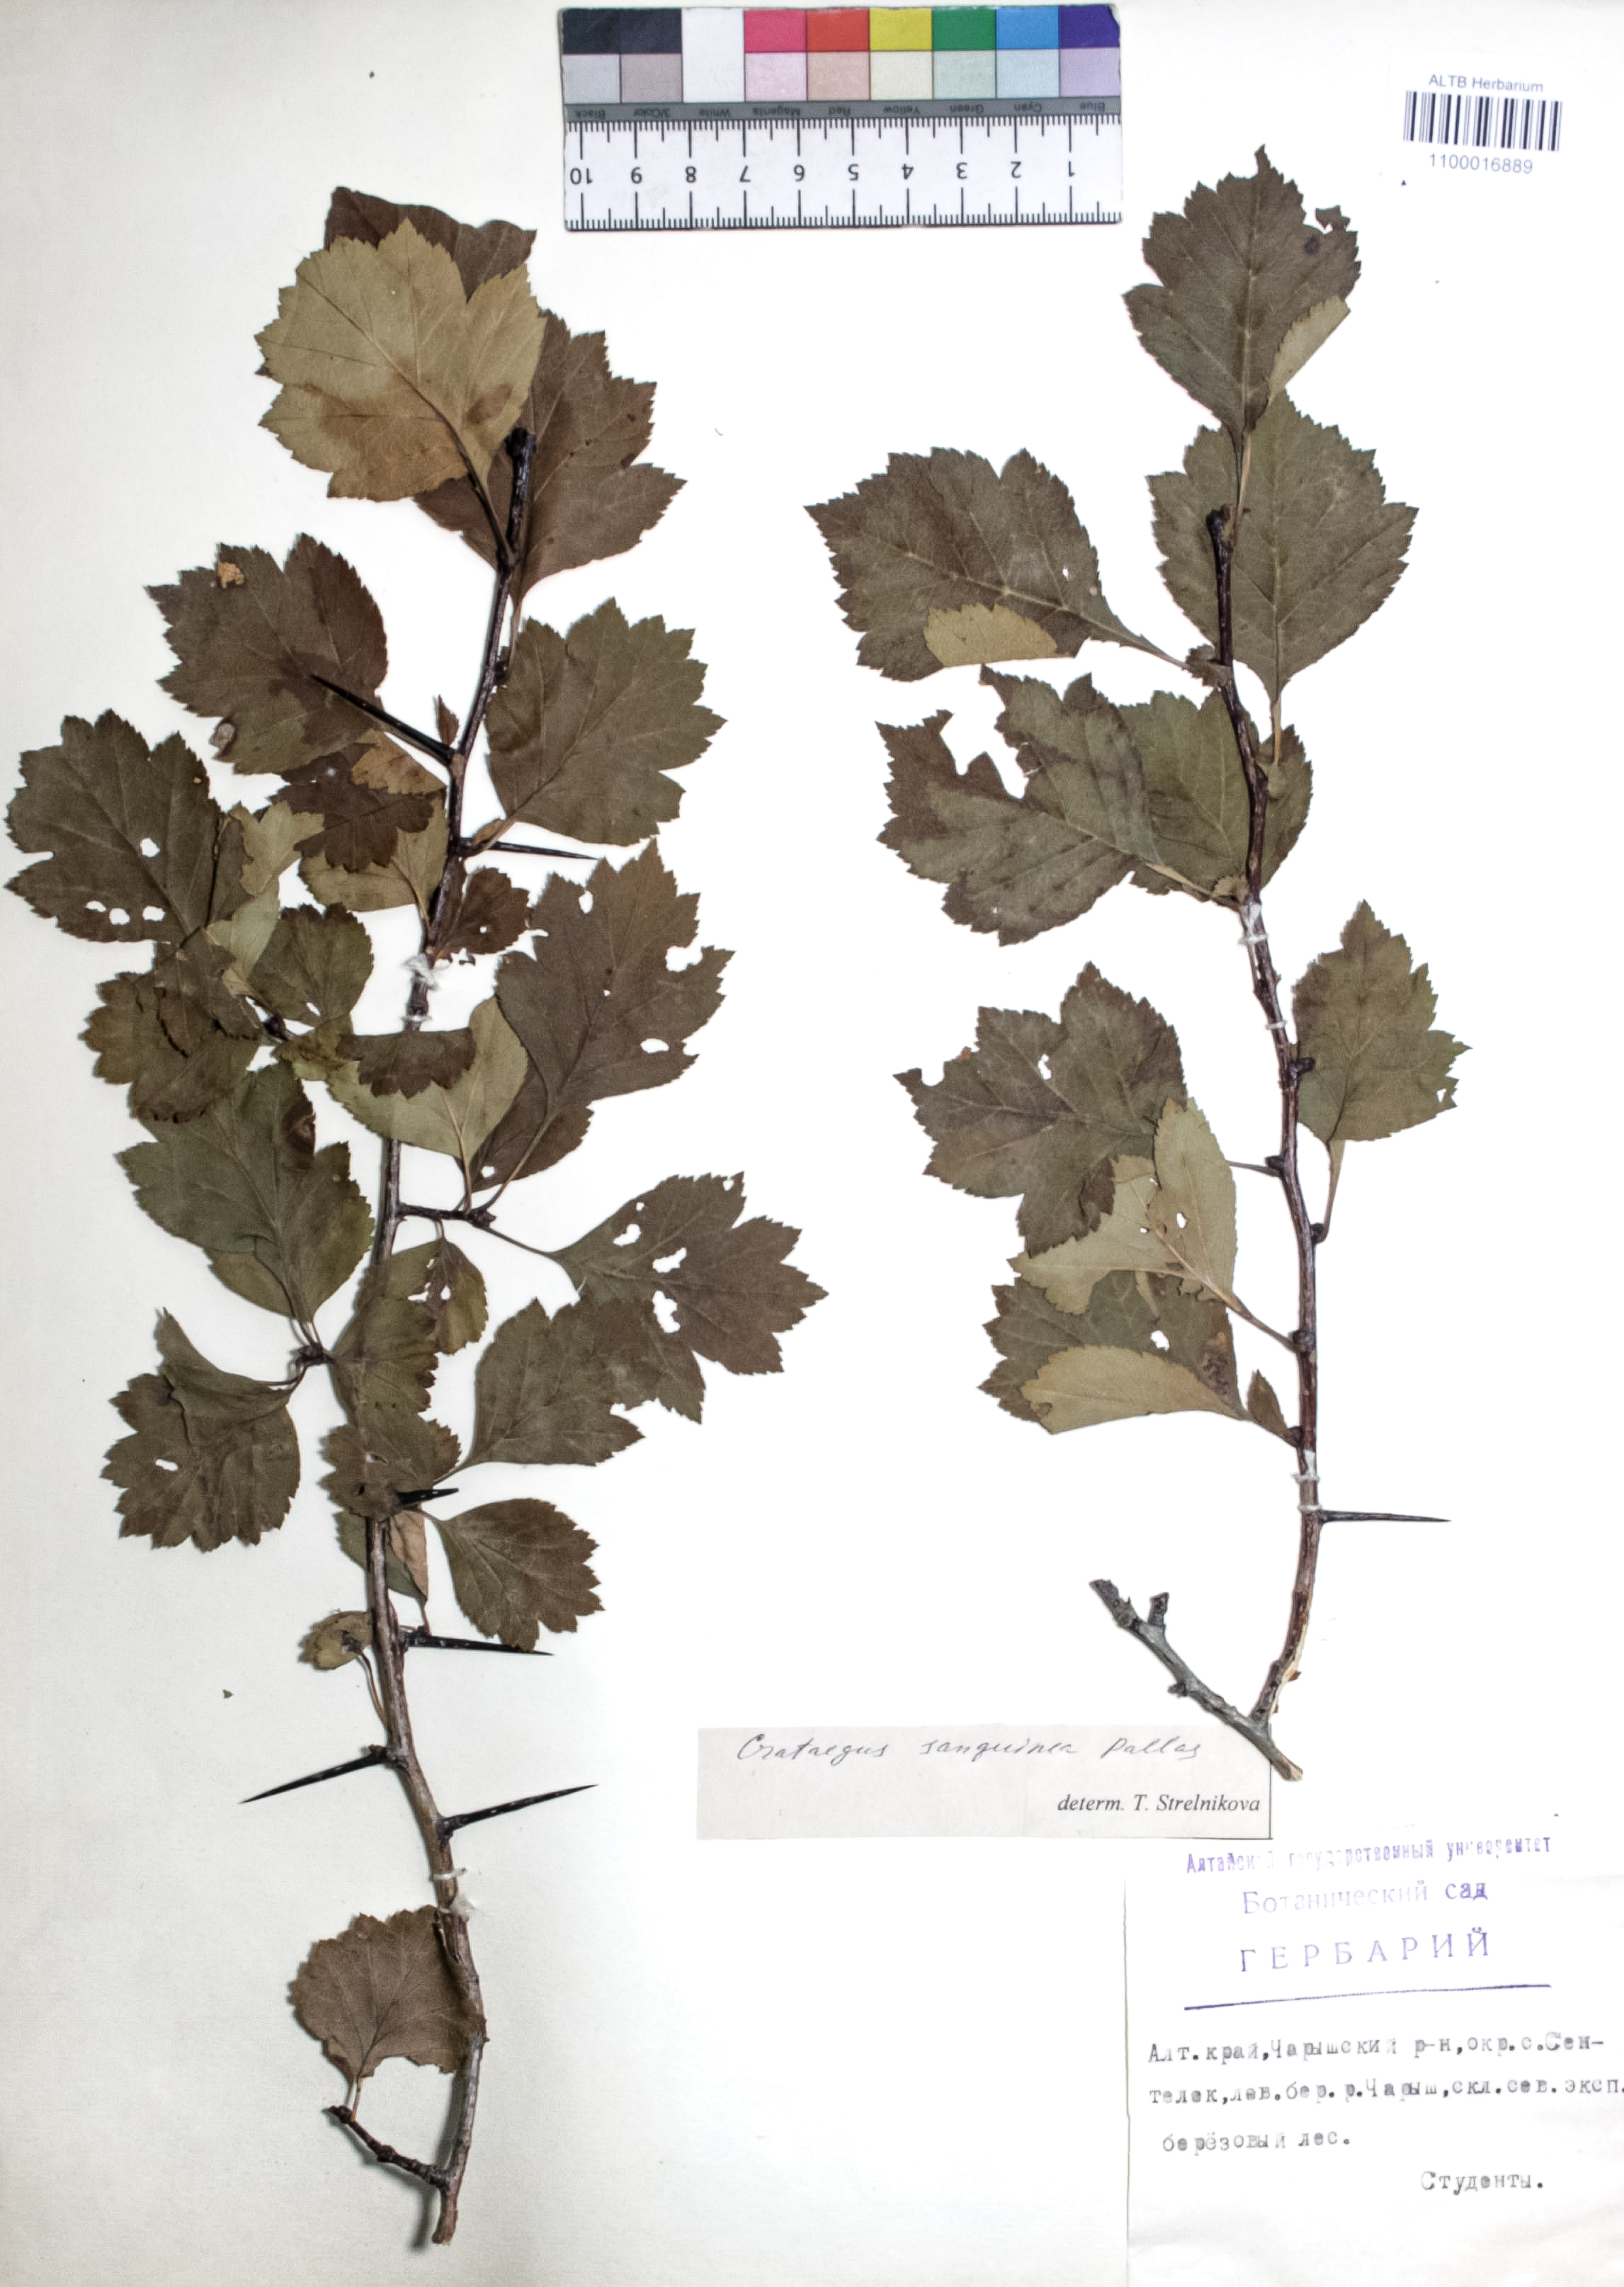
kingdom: Plantae
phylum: Tracheophyta
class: Magnoliopsida
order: Rosales
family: Rosaceae
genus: Crataegus
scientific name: Crataegus sanguinea
